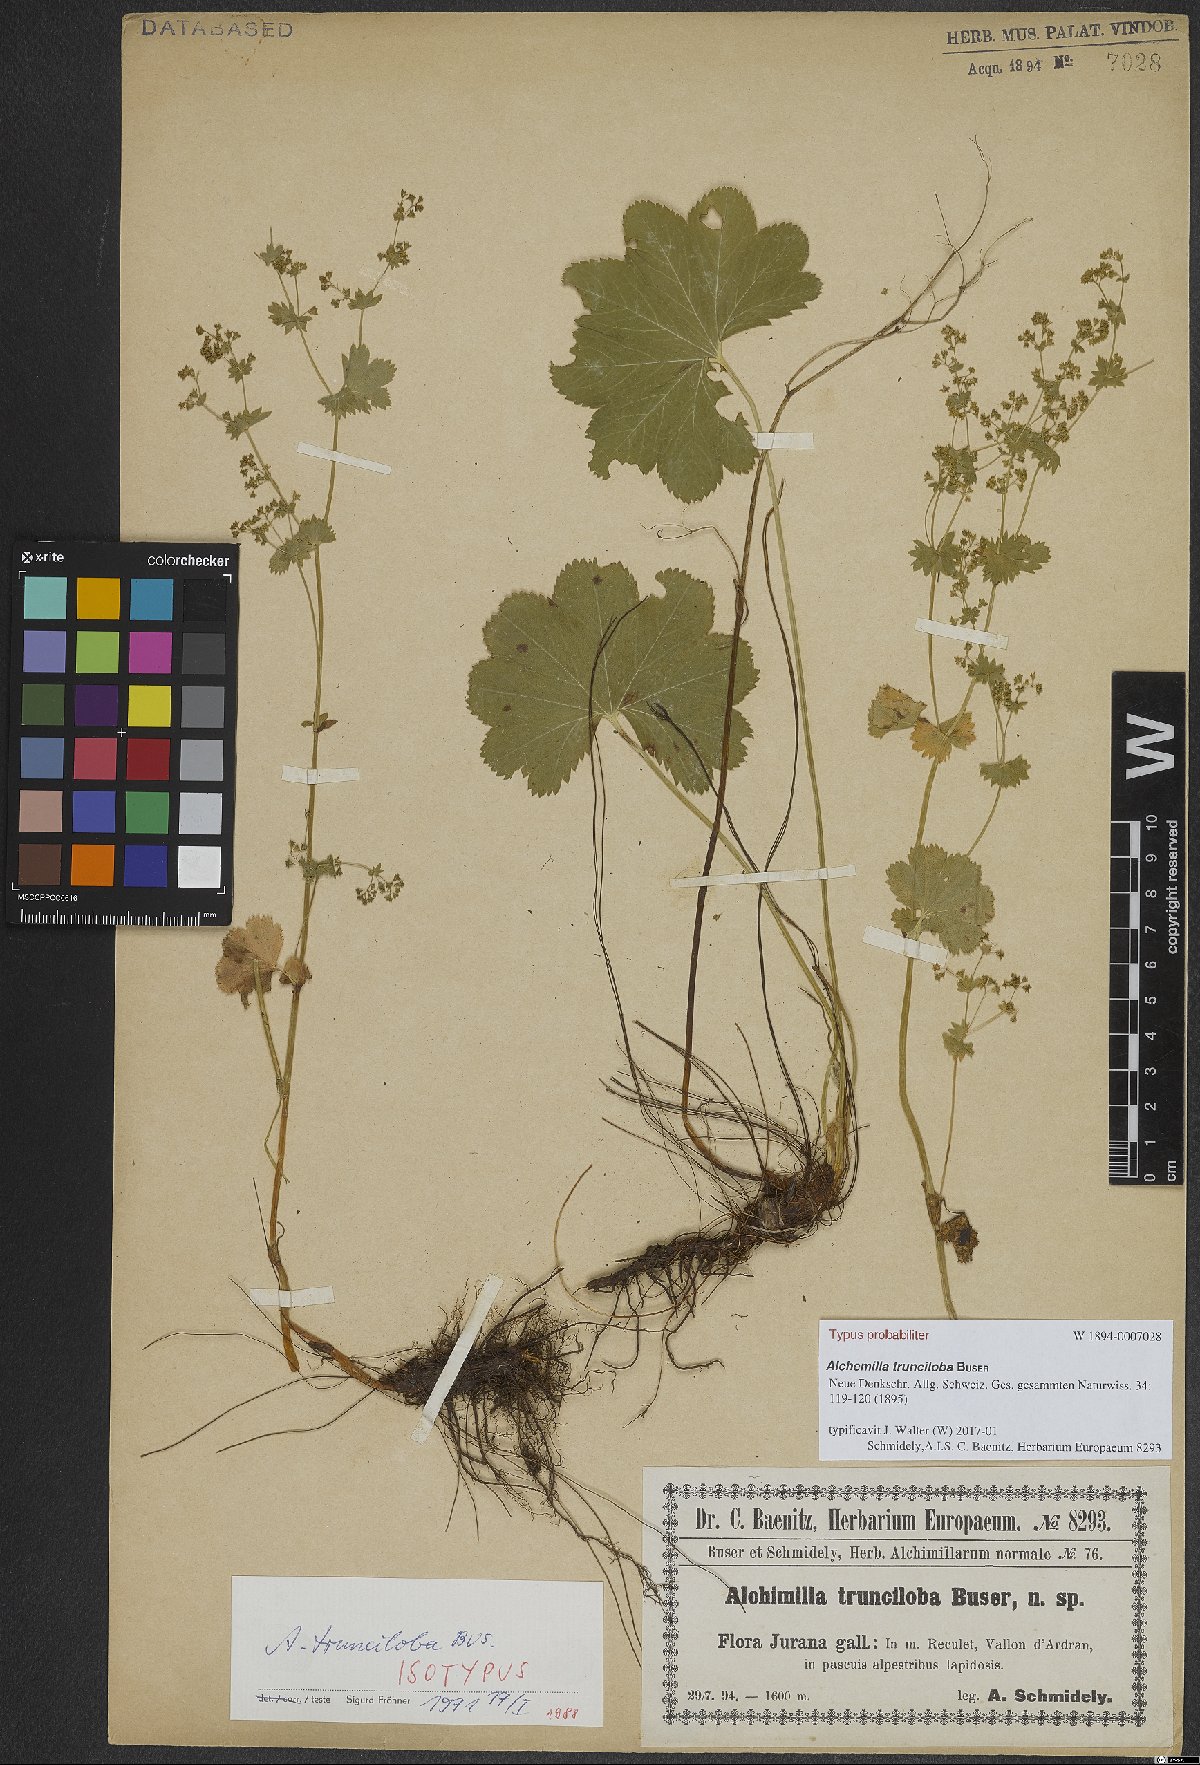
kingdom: Plantae
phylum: Tracheophyta
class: Magnoliopsida
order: Rosales
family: Rosaceae
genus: Alchemilla
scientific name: Alchemilla trunciloba
